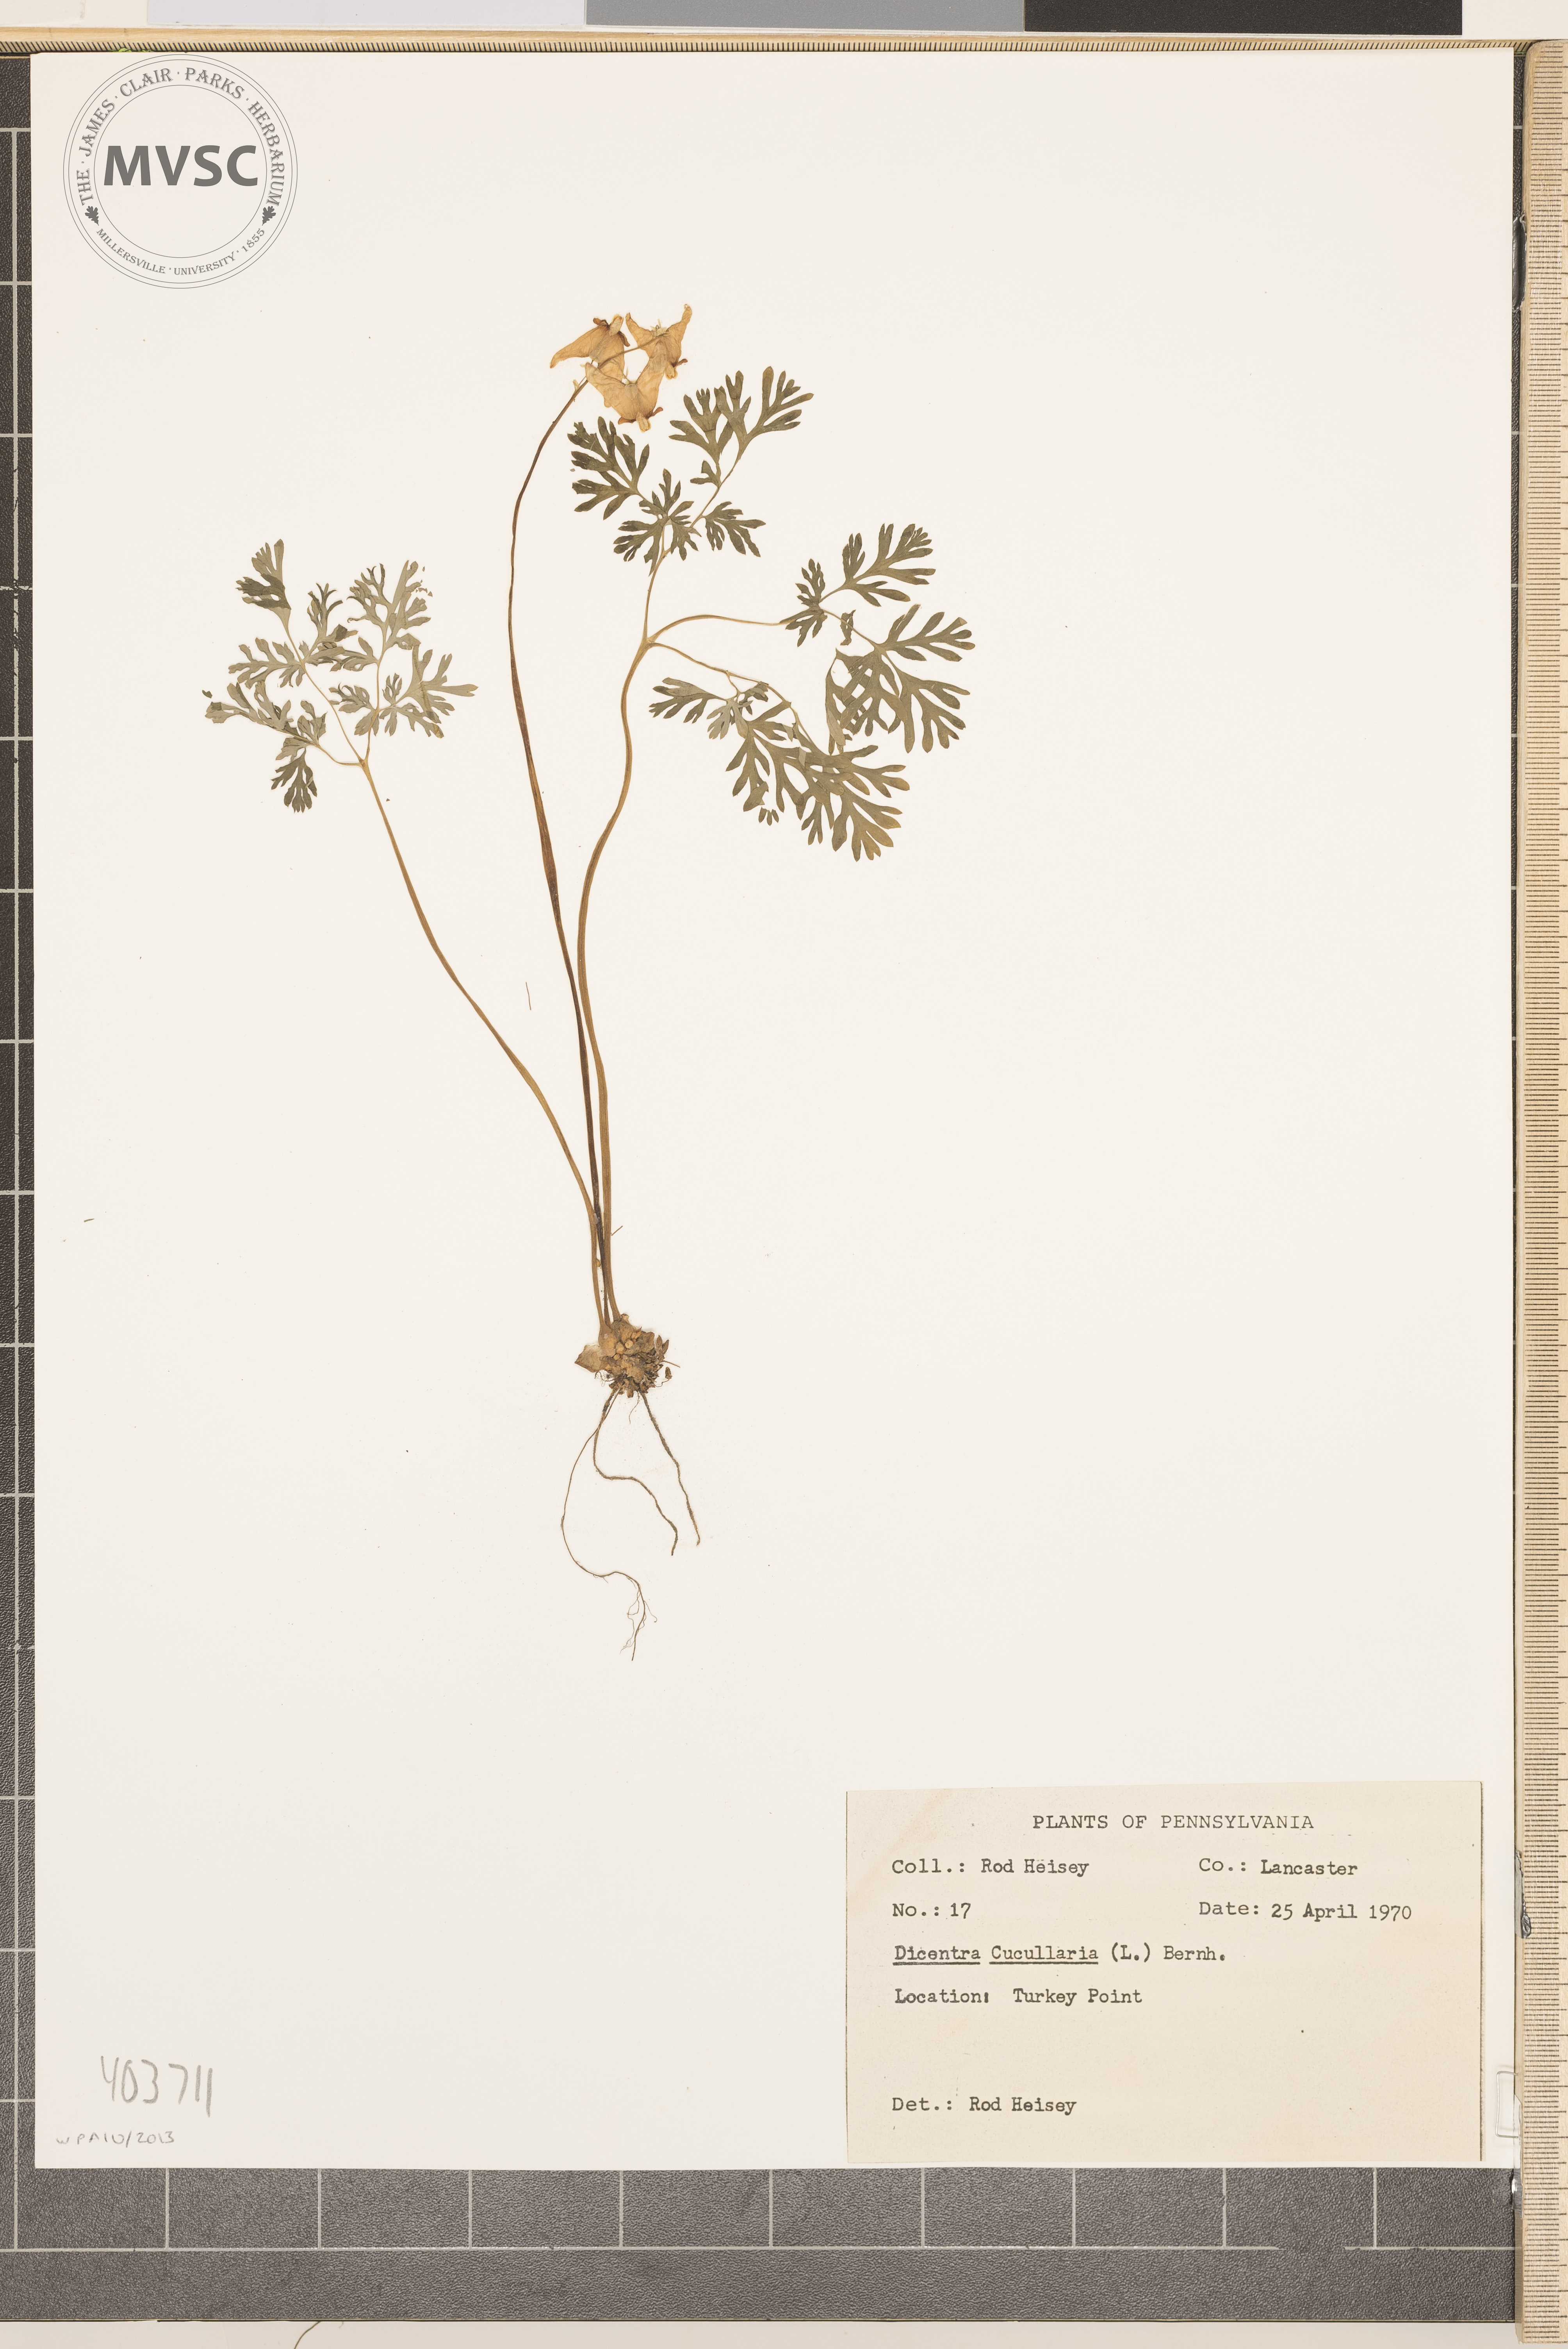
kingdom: Plantae
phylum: Tracheophyta
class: Magnoliopsida
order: Ranunculales
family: Papaveraceae
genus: Dicentra
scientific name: Dicentra cucullaria
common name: Dutchman's breeches
